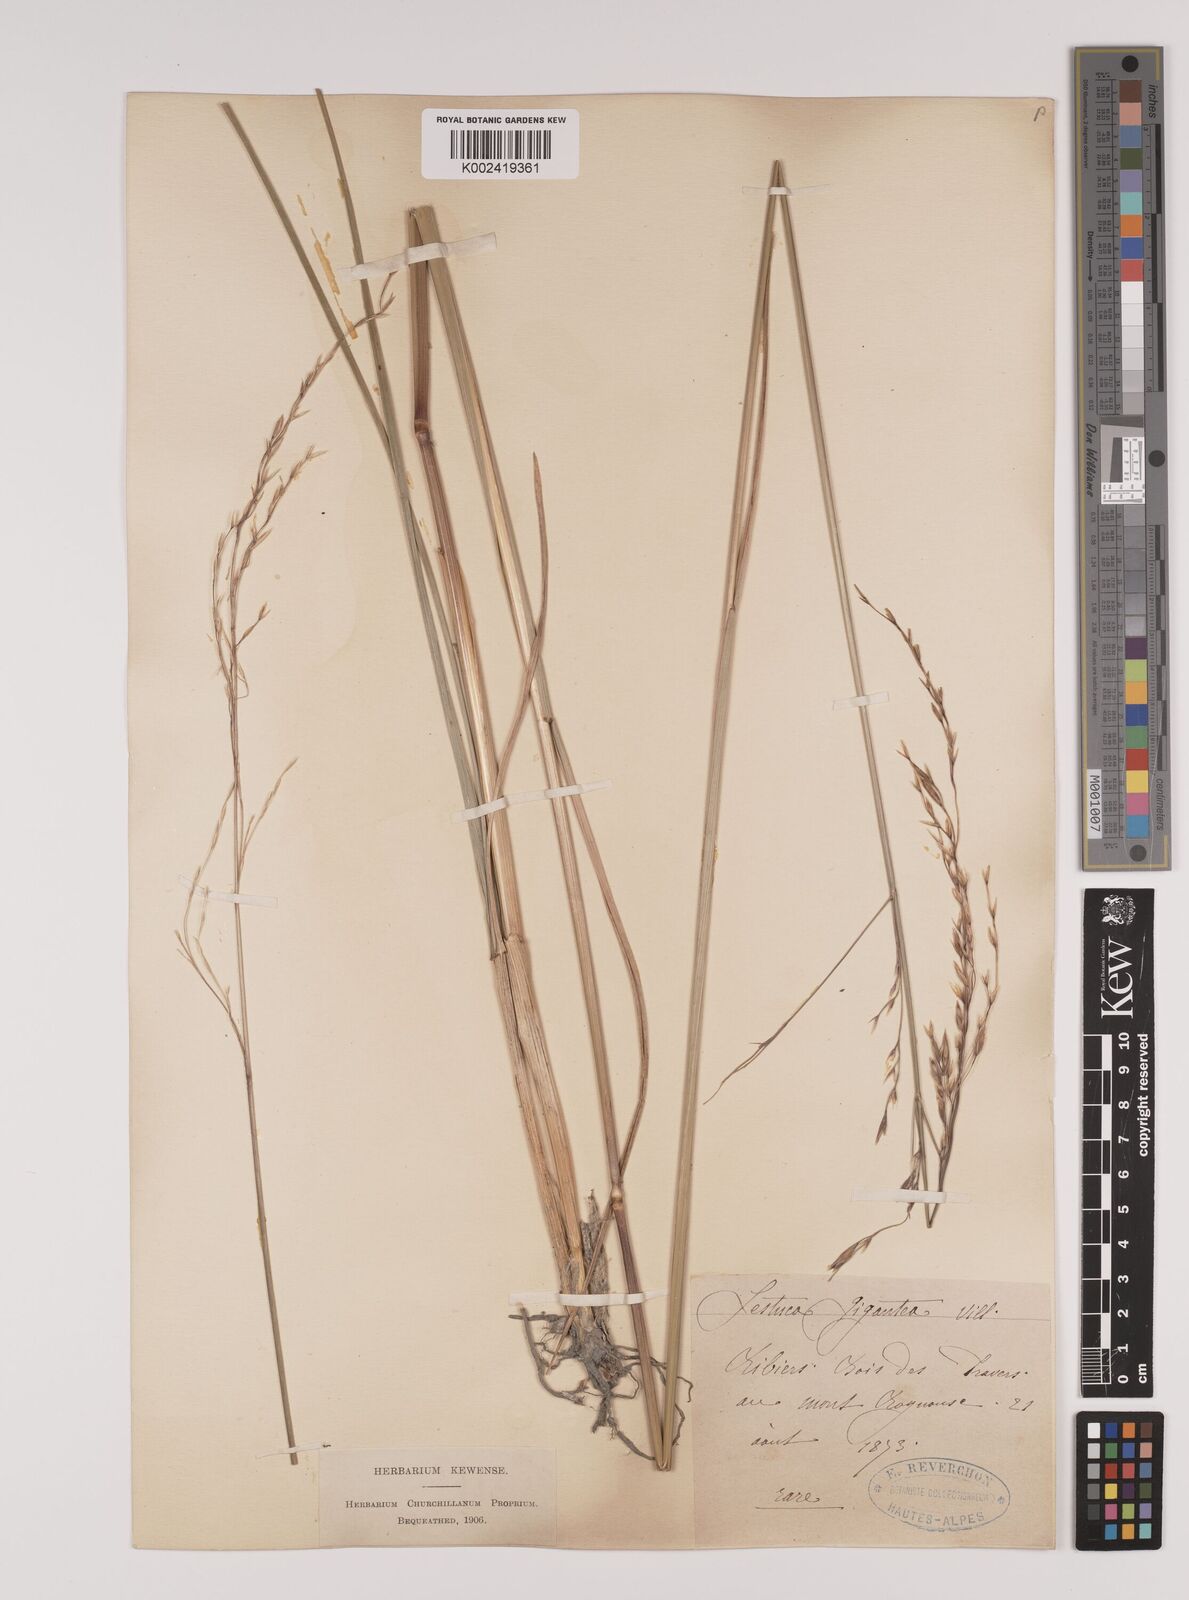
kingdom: Plantae
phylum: Tracheophyta
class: Liliopsida
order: Poales
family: Poaceae
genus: Lolium
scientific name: Lolium giganteum
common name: Giant fescue
